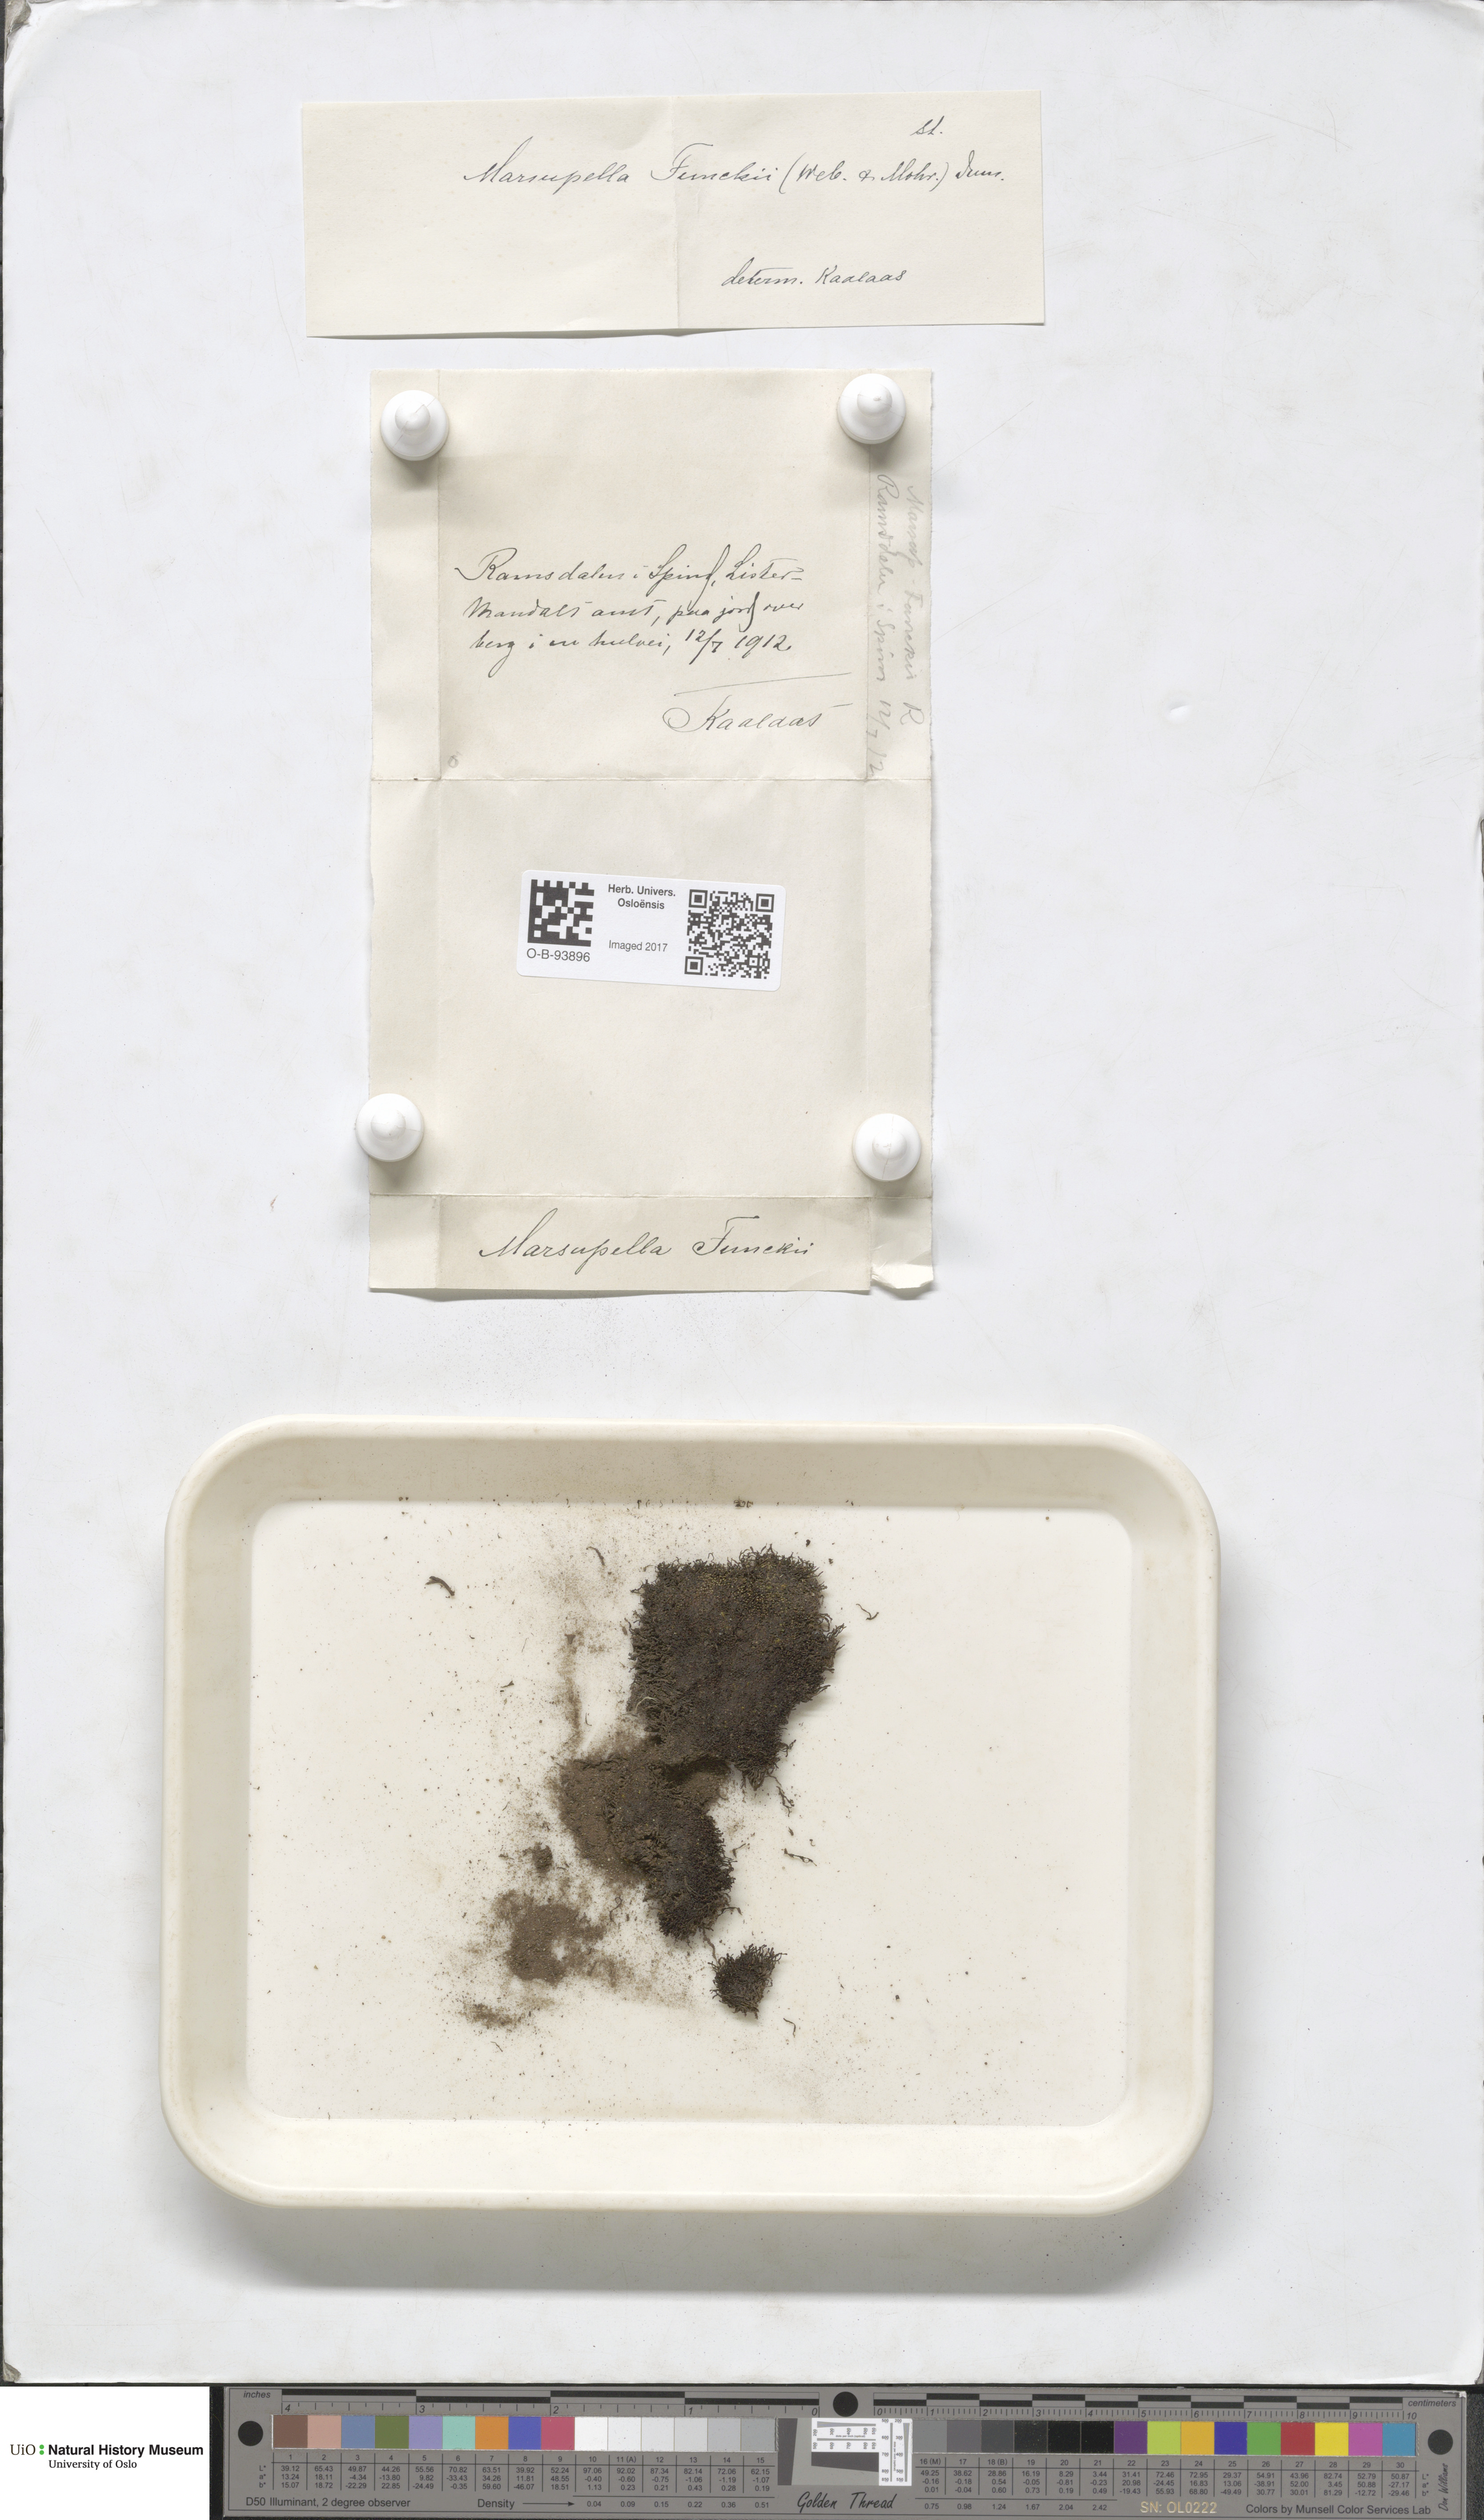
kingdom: Plantae
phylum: Marchantiophyta
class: Jungermanniopsida
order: Jungermanniales
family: Gymnomitriaceae
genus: Marsupella
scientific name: Marsupella funckii
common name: Funck's rustwort
